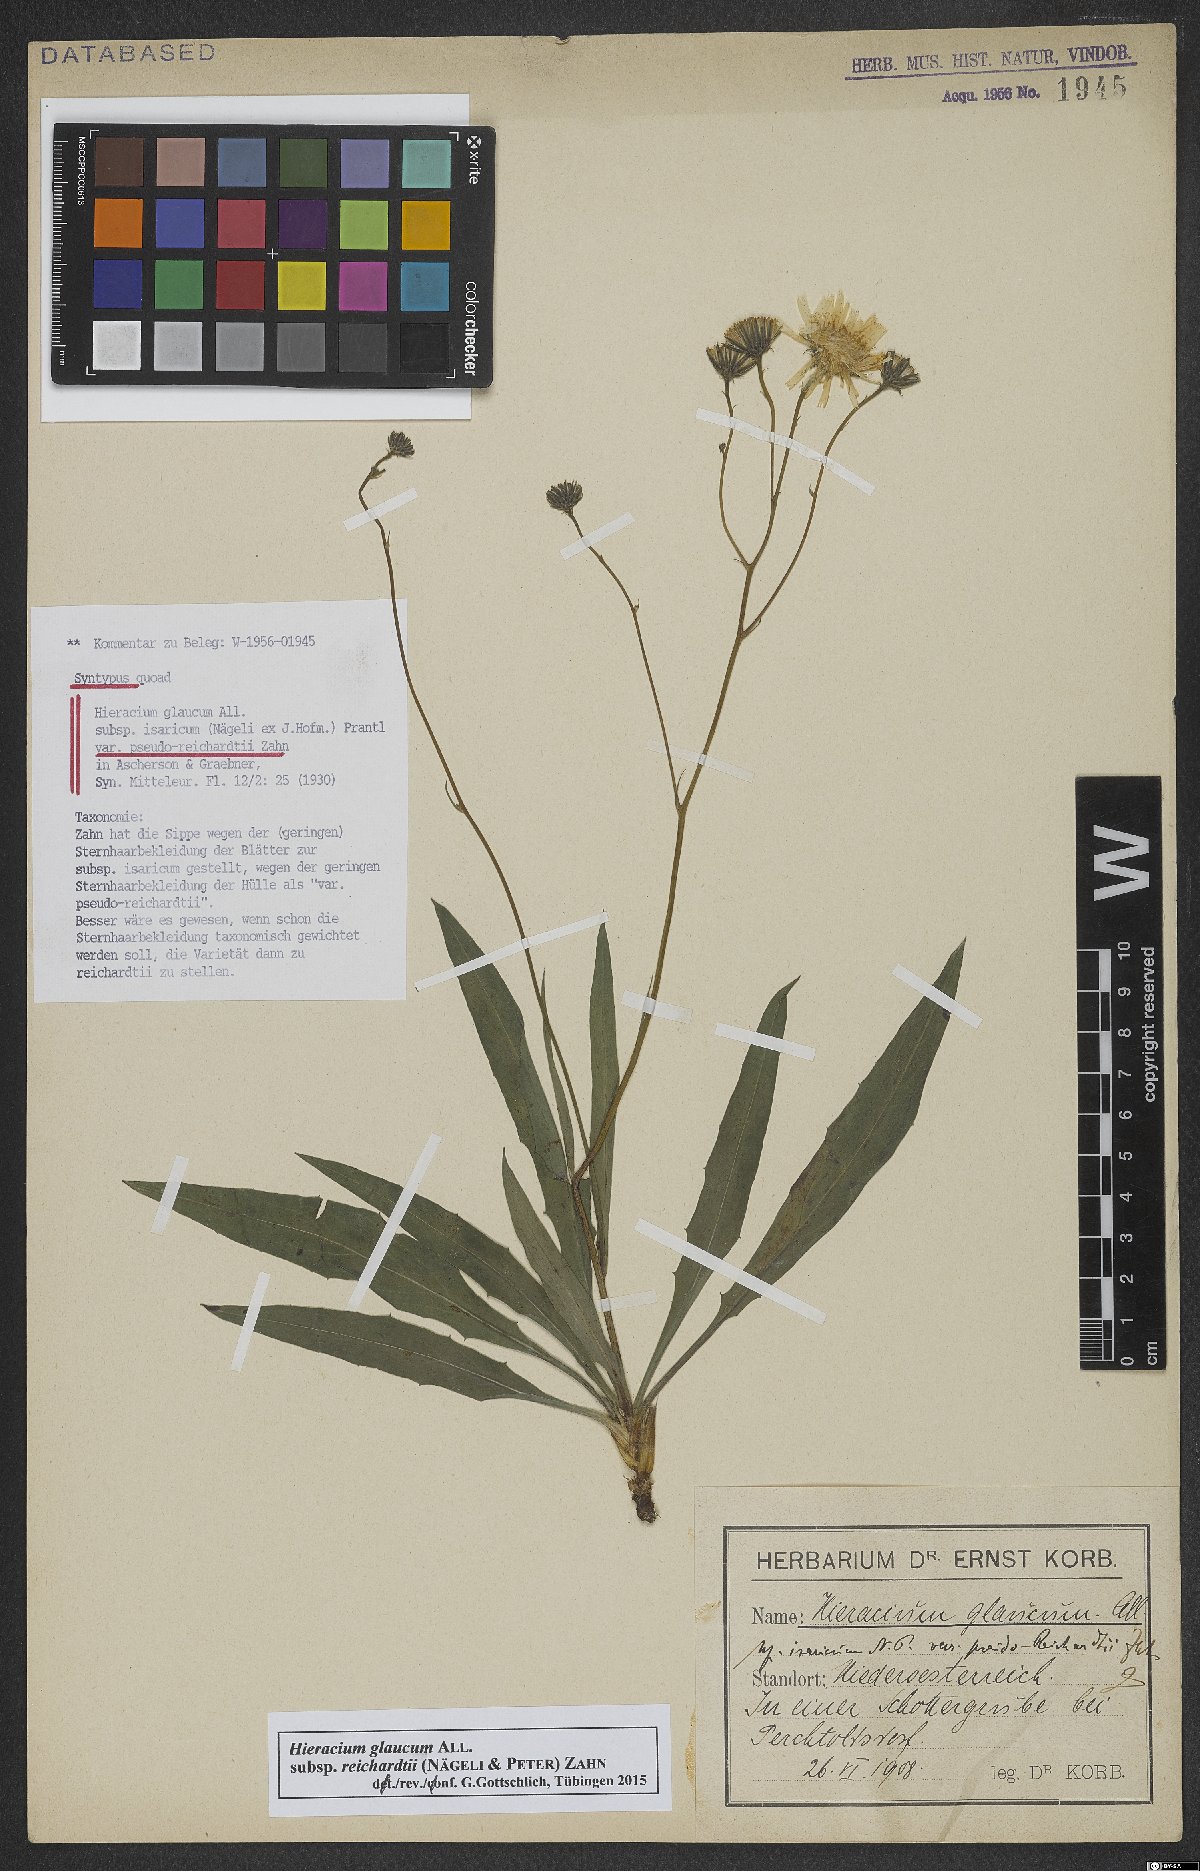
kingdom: Plantae
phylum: Tracheophyta
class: Magnoliopsida
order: Asterales
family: Asteraceae
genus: Hieracium
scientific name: Hieracium glaucum
